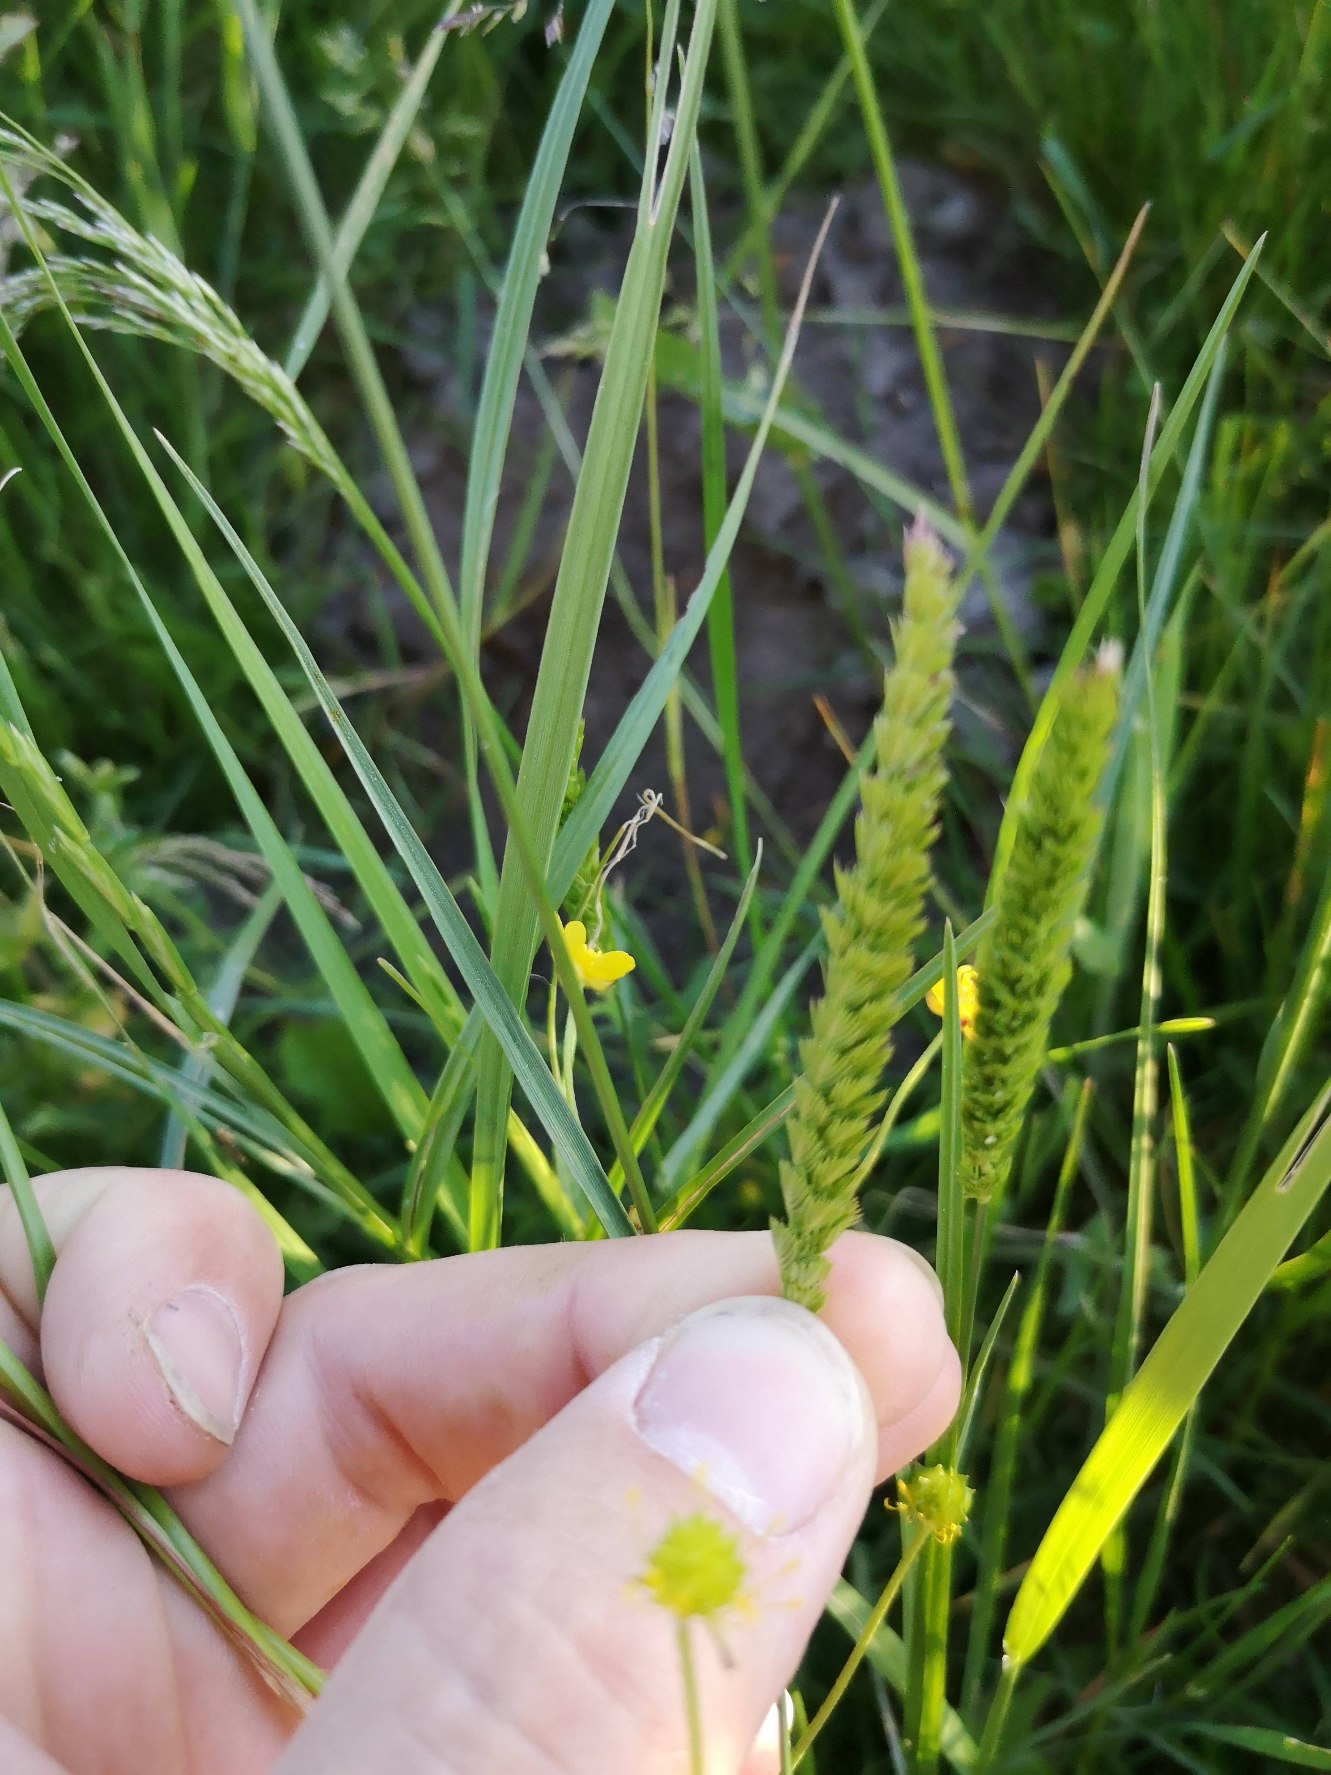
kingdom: Plantae
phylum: Tracheophyta
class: Liliopsida
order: Poales
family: Poaceae
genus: Cynosurus
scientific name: Cynosurus cristatus
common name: Kamgræs
